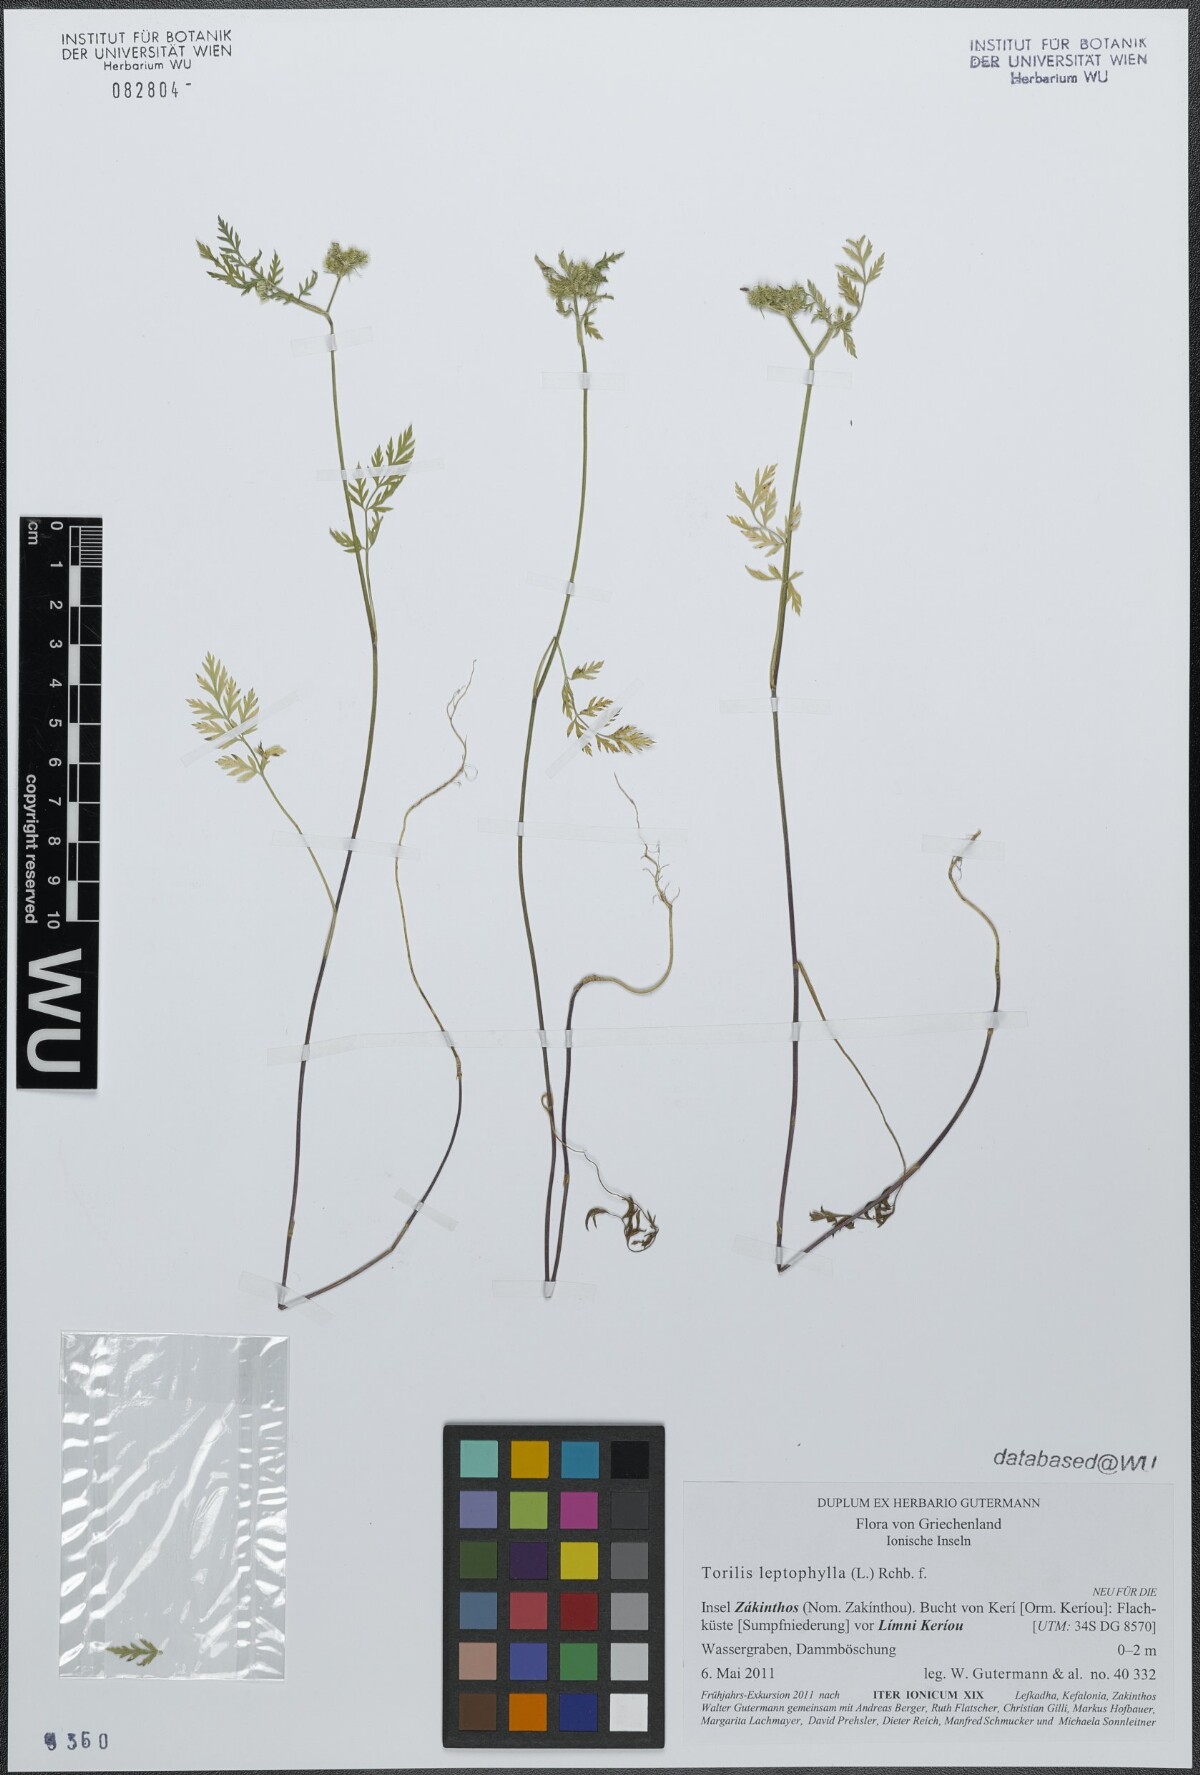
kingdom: Plantae
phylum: Tracheophyta
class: Magnoliopsida
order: Apiales
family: Apiaceae
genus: Torilis
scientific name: Torilis leptophylla
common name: Bristlefruit hedgeparsley
